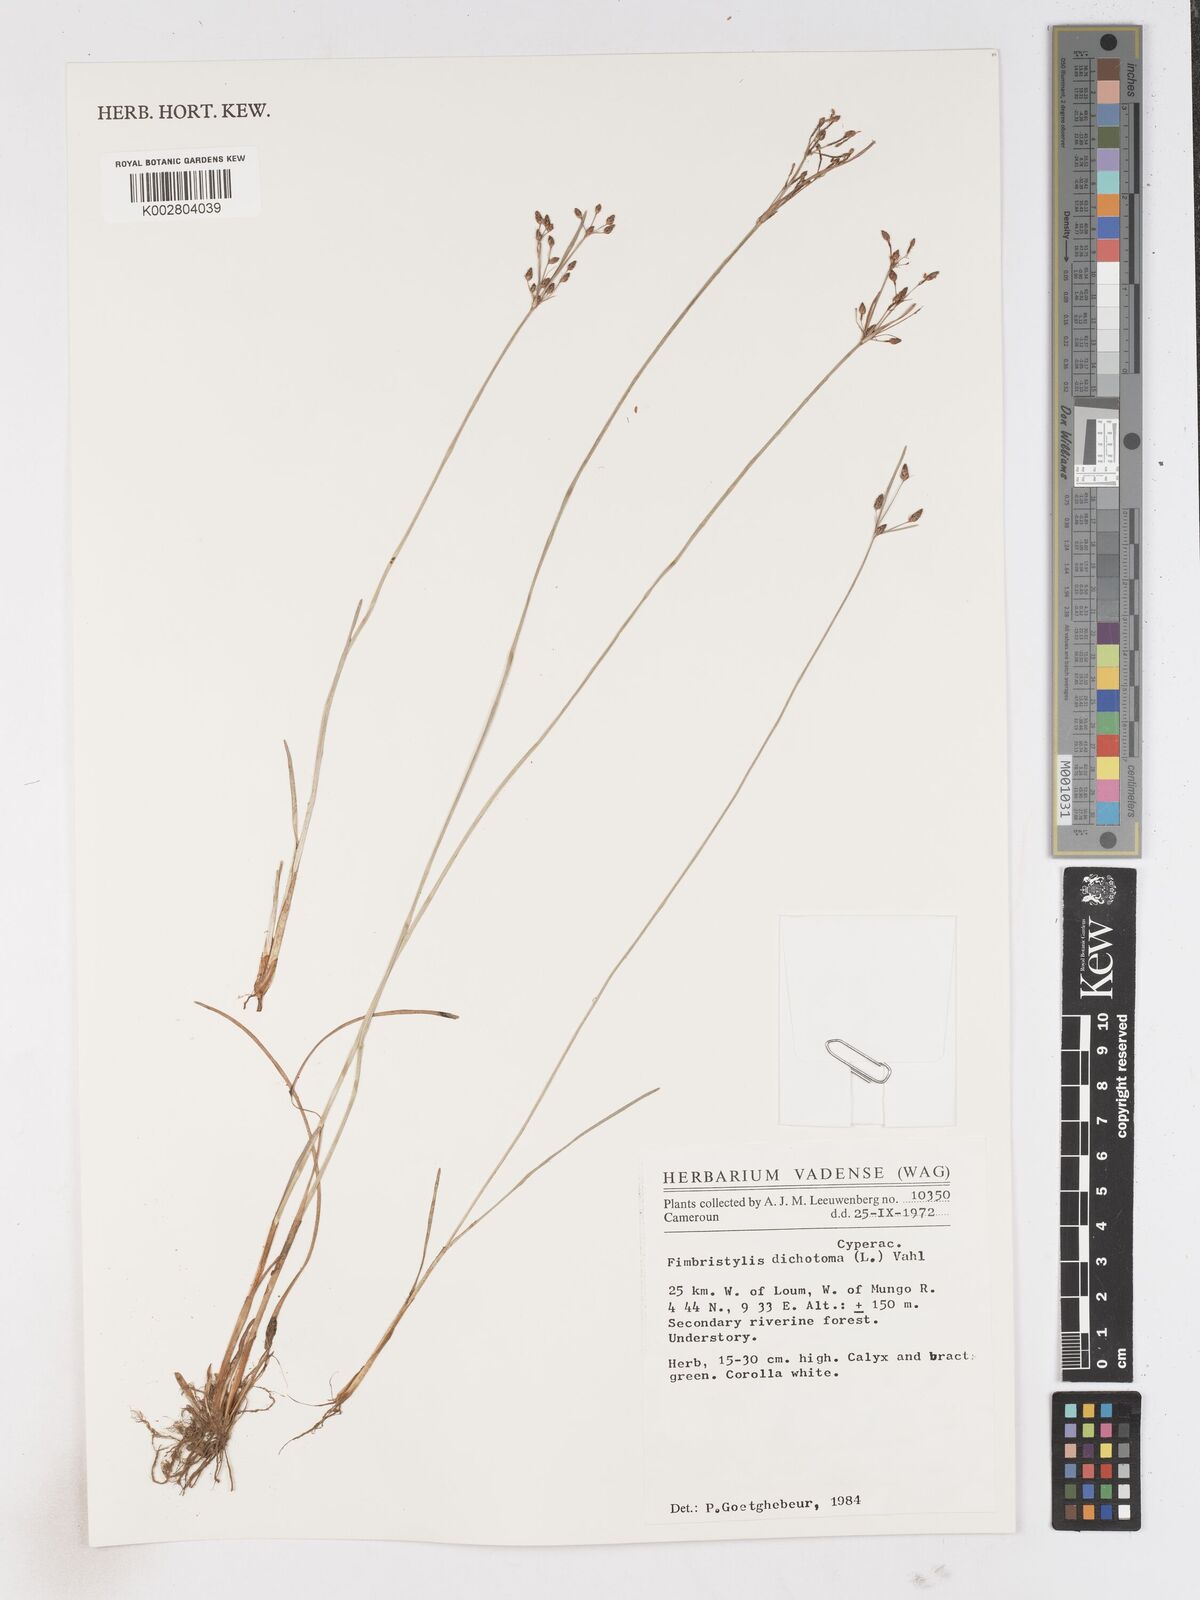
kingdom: Plantae
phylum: Tracheophyta
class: Liliopsida
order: Poales
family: Cyperaceae
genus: Fimbristylis
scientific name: Fimbristylis dichotoma
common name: Forked fimbry
